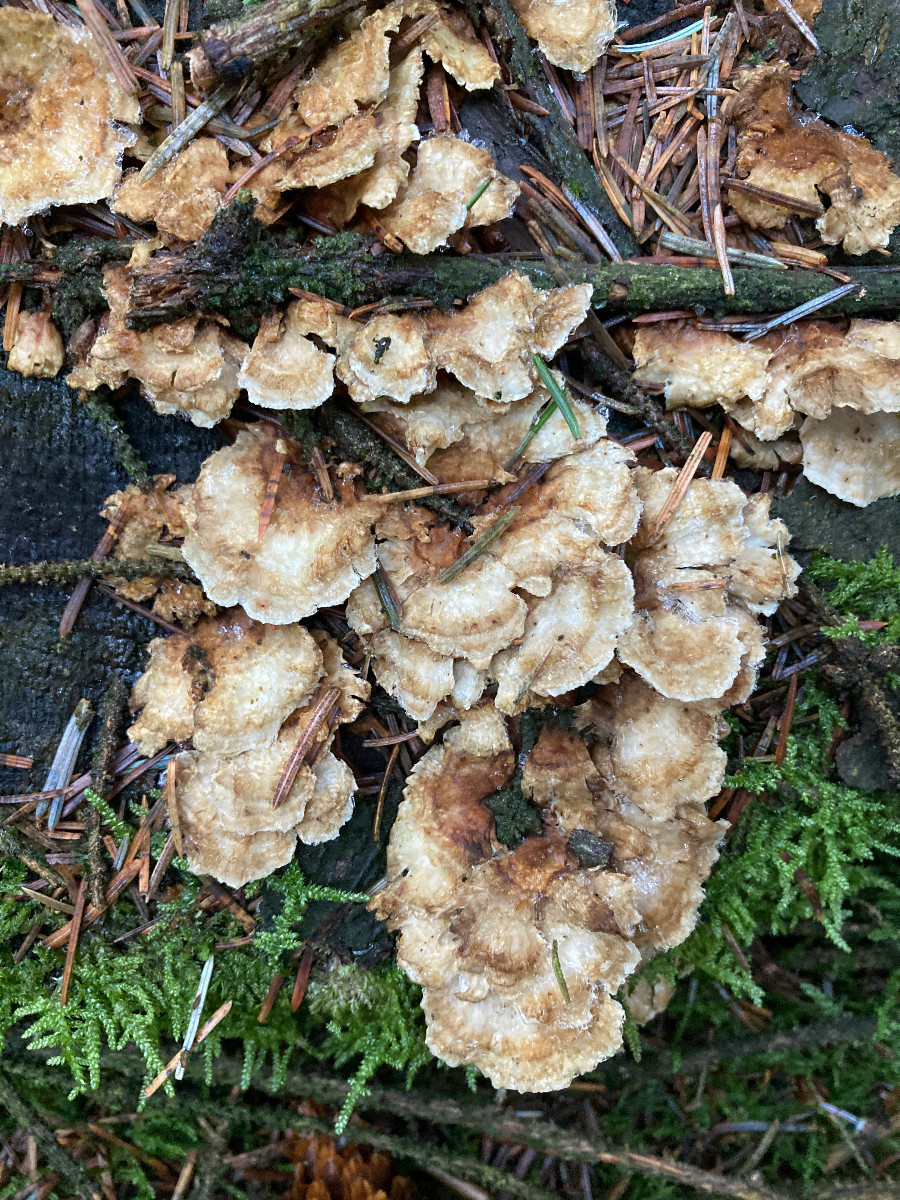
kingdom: Fungi
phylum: Basidiomycota
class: Agaricomycetes
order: Polyporales
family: Dacryobolaceae
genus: Oligoporus
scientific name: Oligoporus wakefieldiae
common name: række-kødporesvamp
